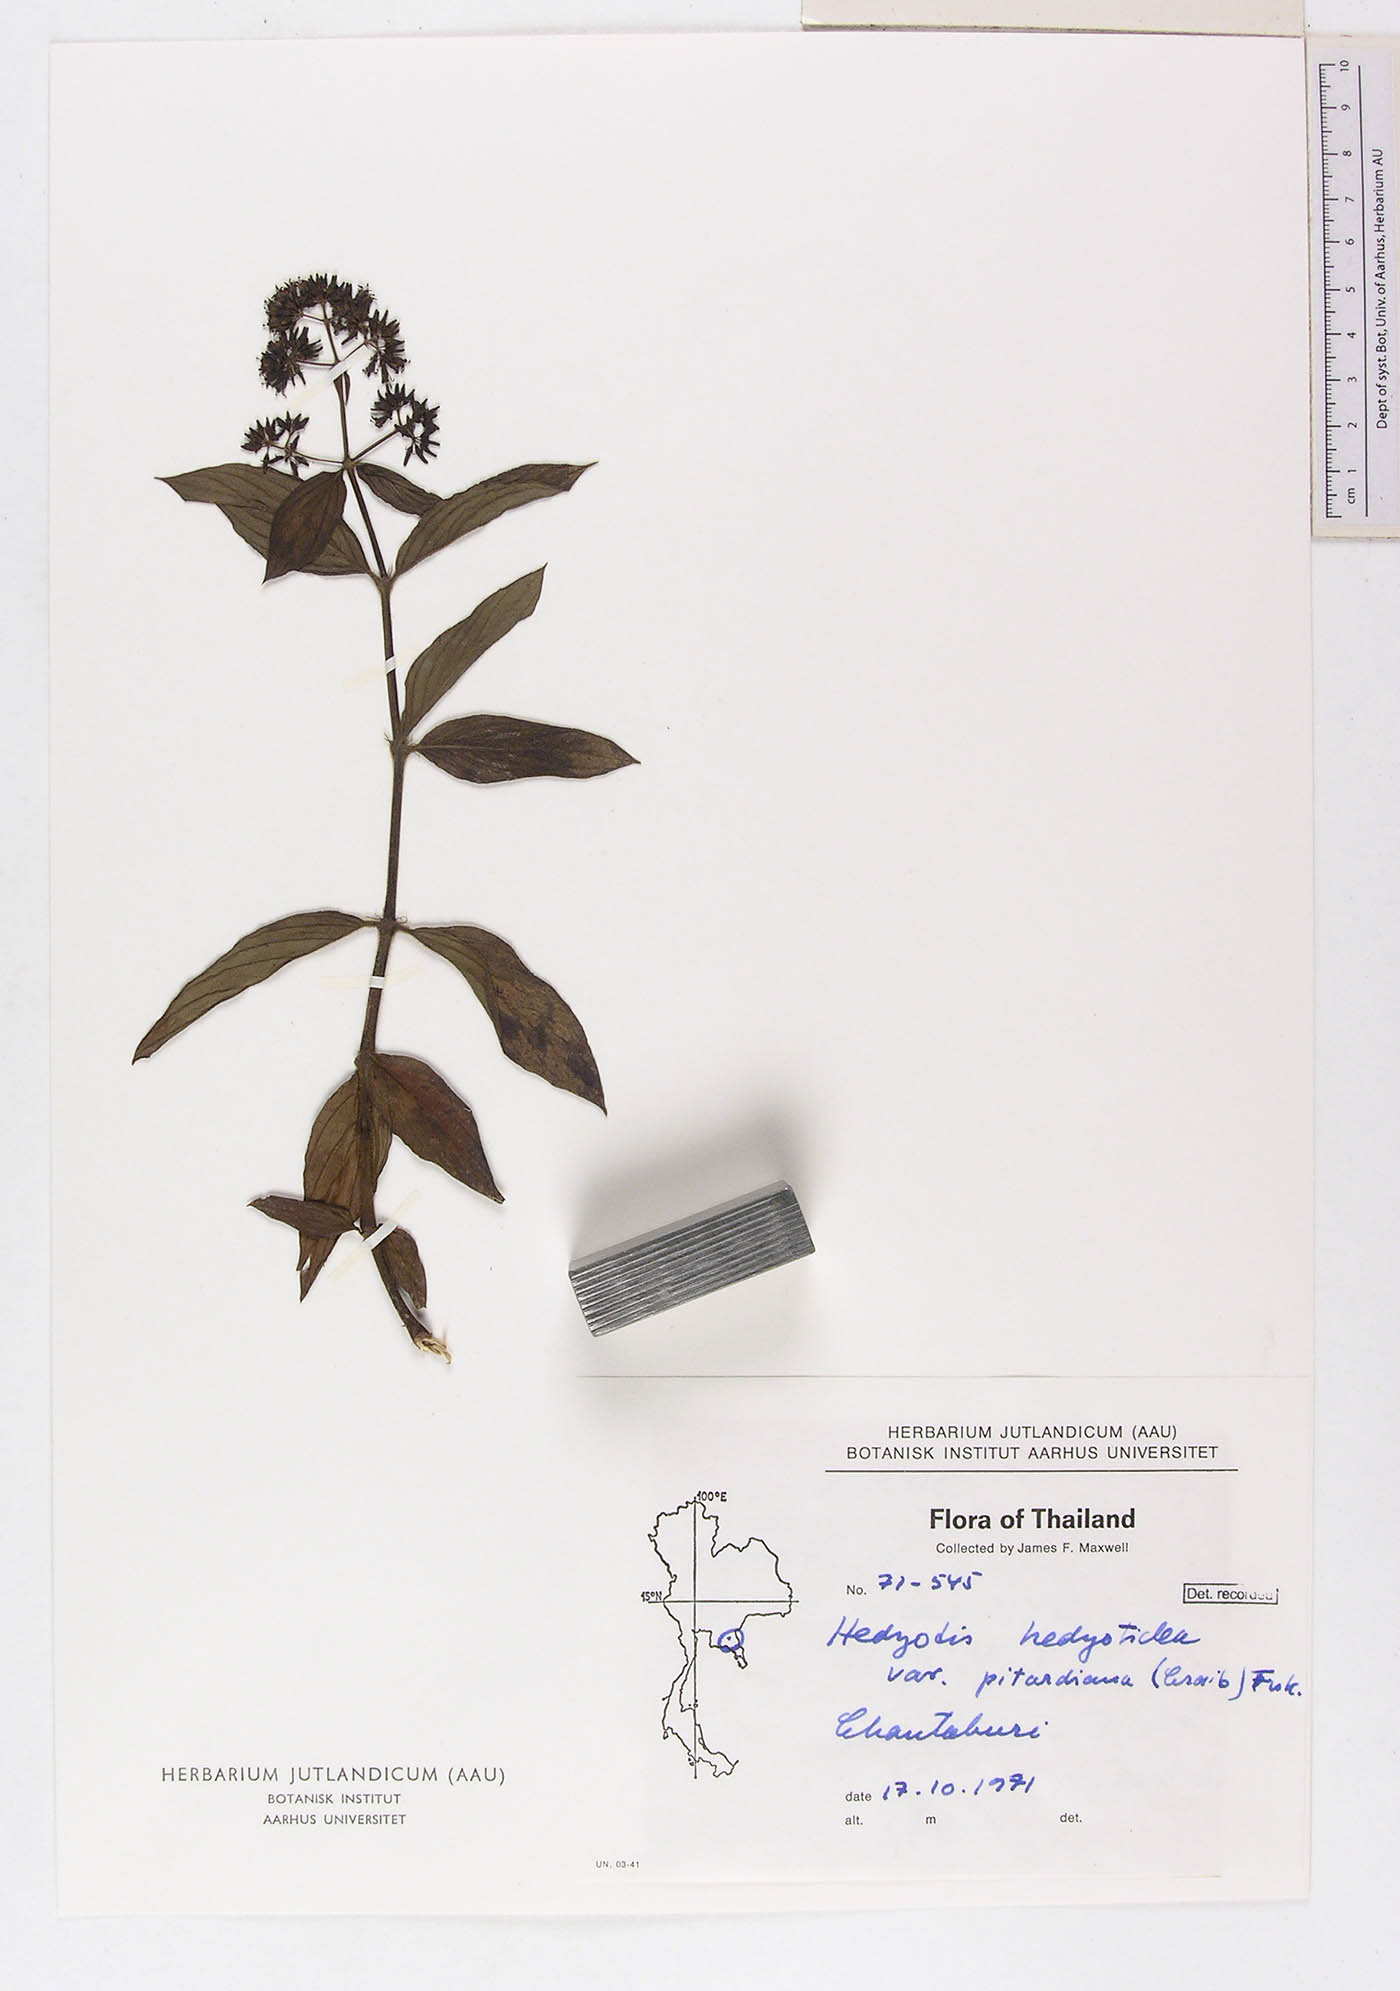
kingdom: Plantae
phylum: Tracheophyta
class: Magnoliopsida
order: Gentianales
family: Rubiaceae
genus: Dimetia
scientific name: Dimetia pitardiana
